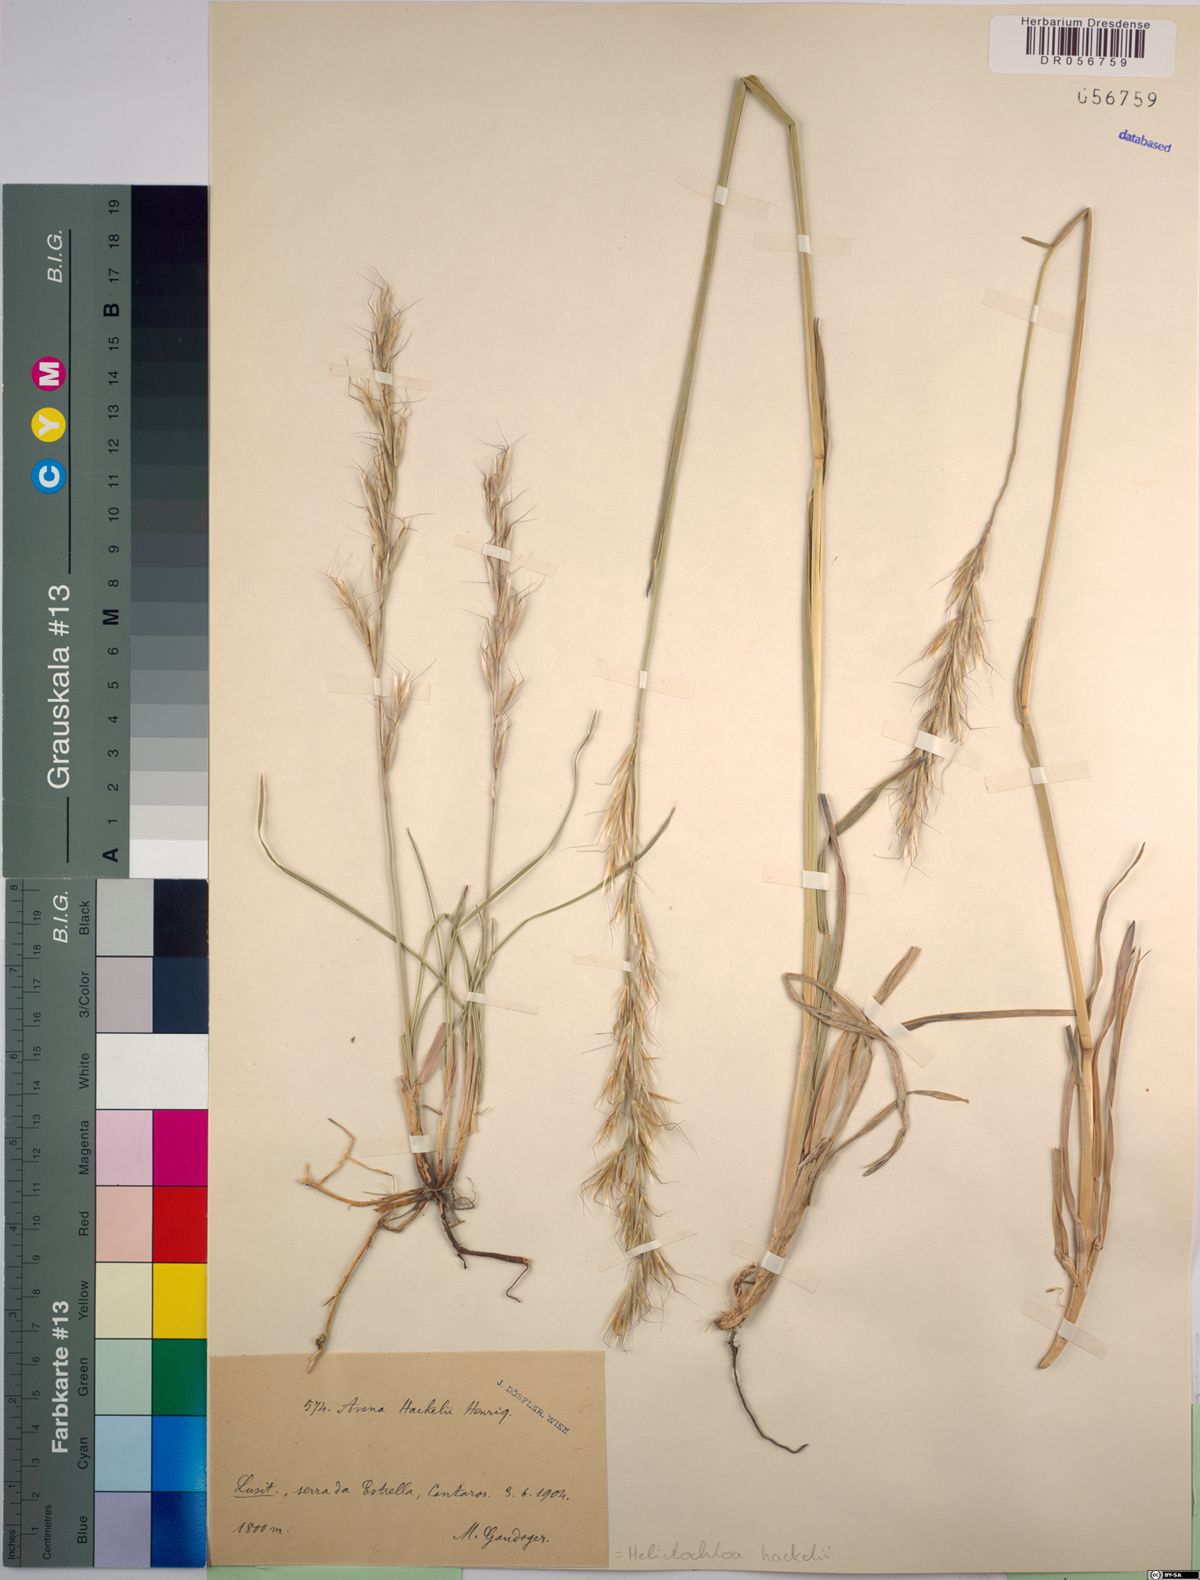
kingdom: Plantae
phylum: Tracheophyta
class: Liliopsida
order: Poales
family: Poaceae
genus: Helictochloa
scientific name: Helictochloa hackelii
